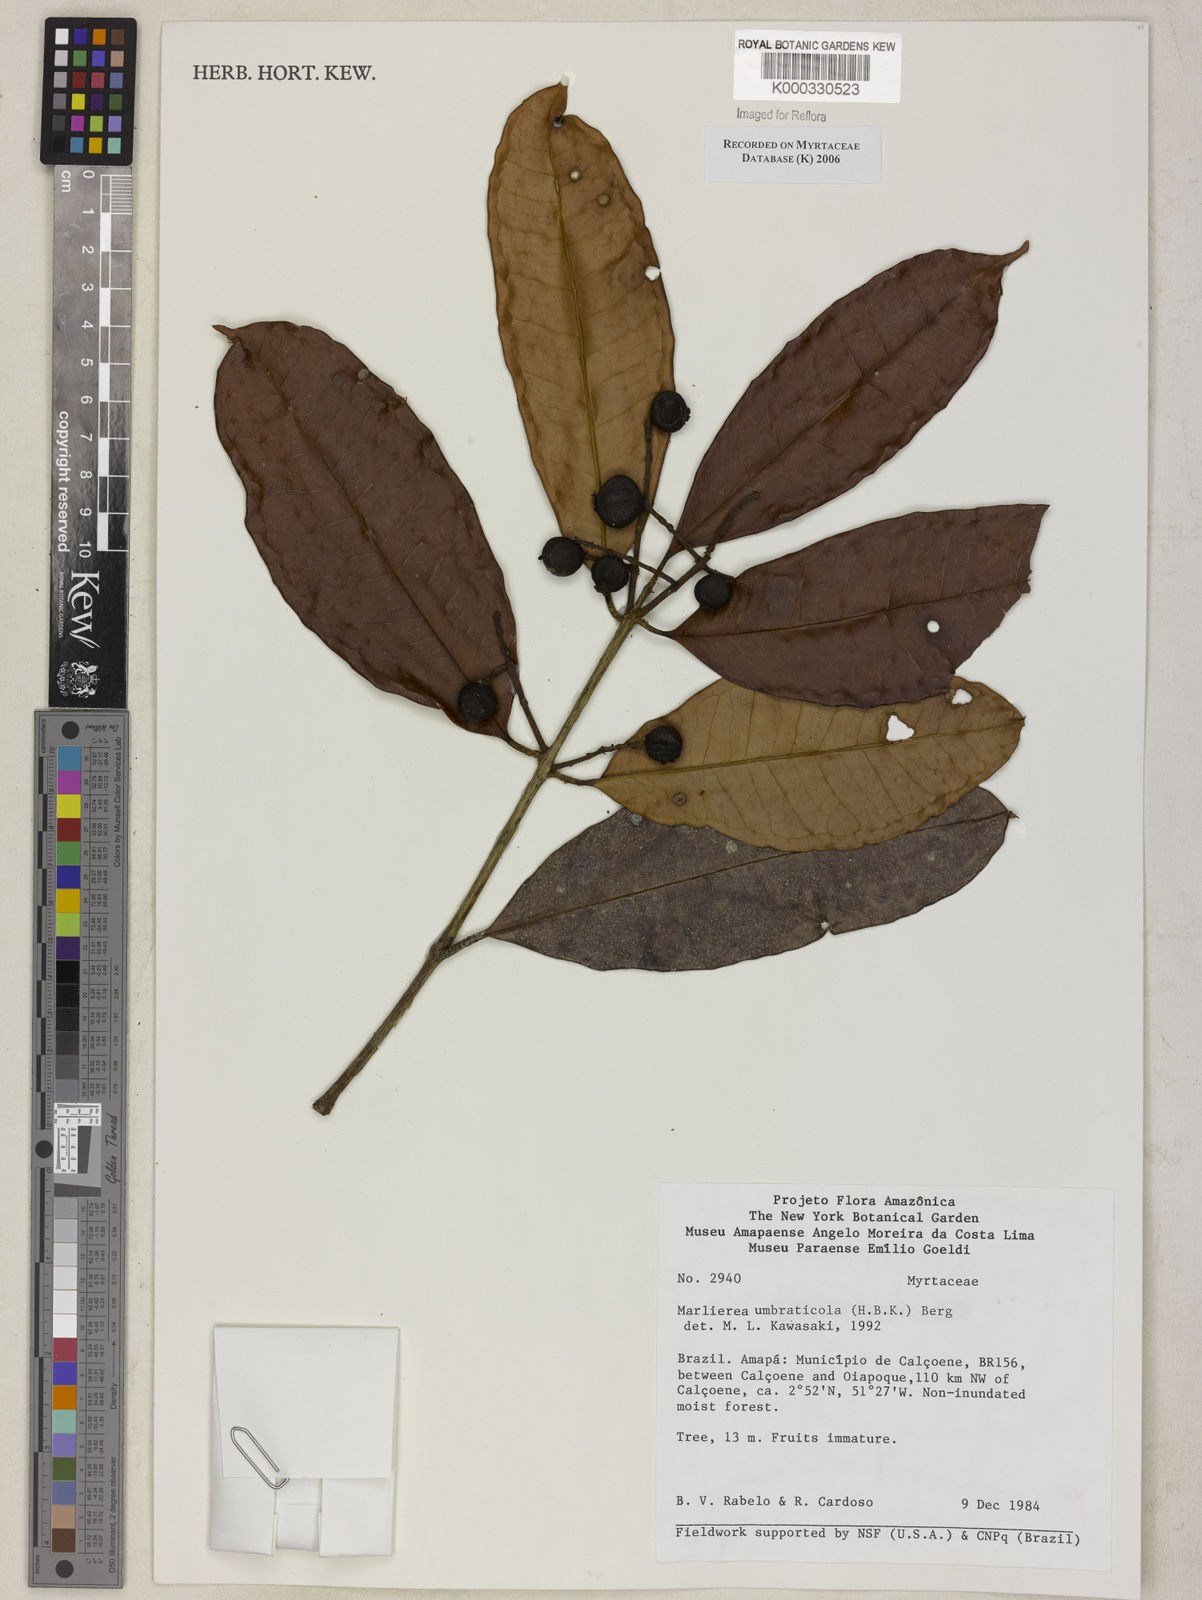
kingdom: Plantae
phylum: Tracheophyta
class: Magnoliopsida
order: Myrtales
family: Myrtaceae
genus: Myrcia
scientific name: Myrcia umbraticola
